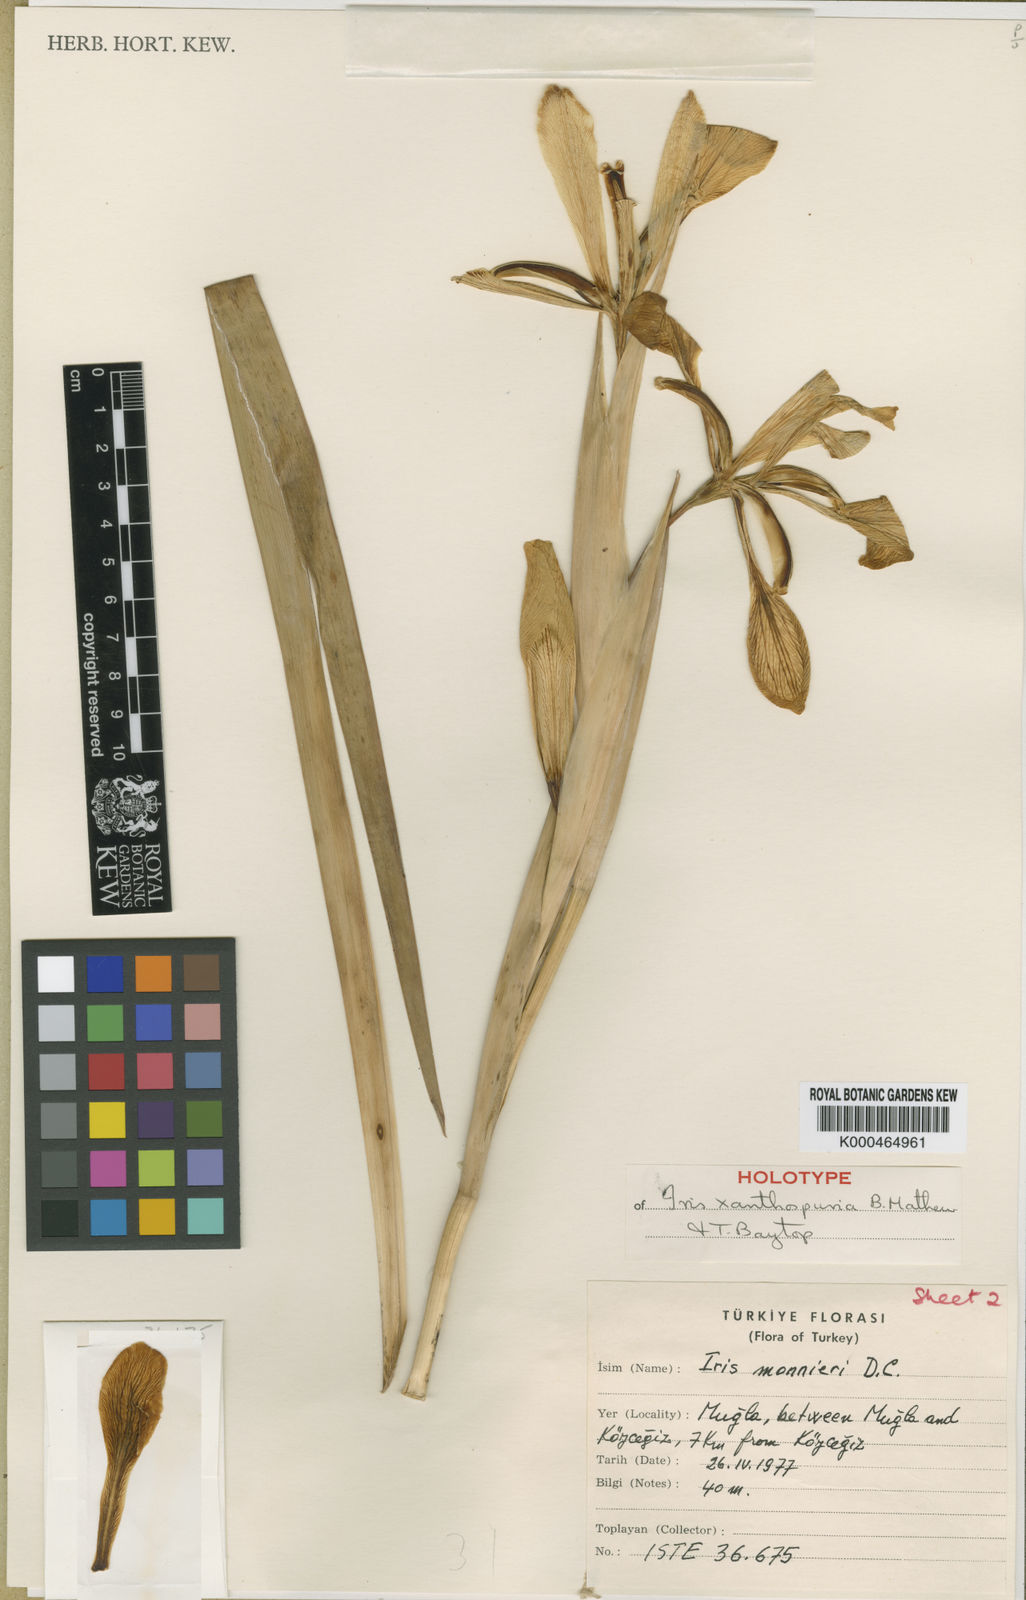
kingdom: Plantae
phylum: Tracheophyta
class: Liliopsida
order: Asparagales
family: Iridaceae
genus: Iris
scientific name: Iris spuria
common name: Blue iris
